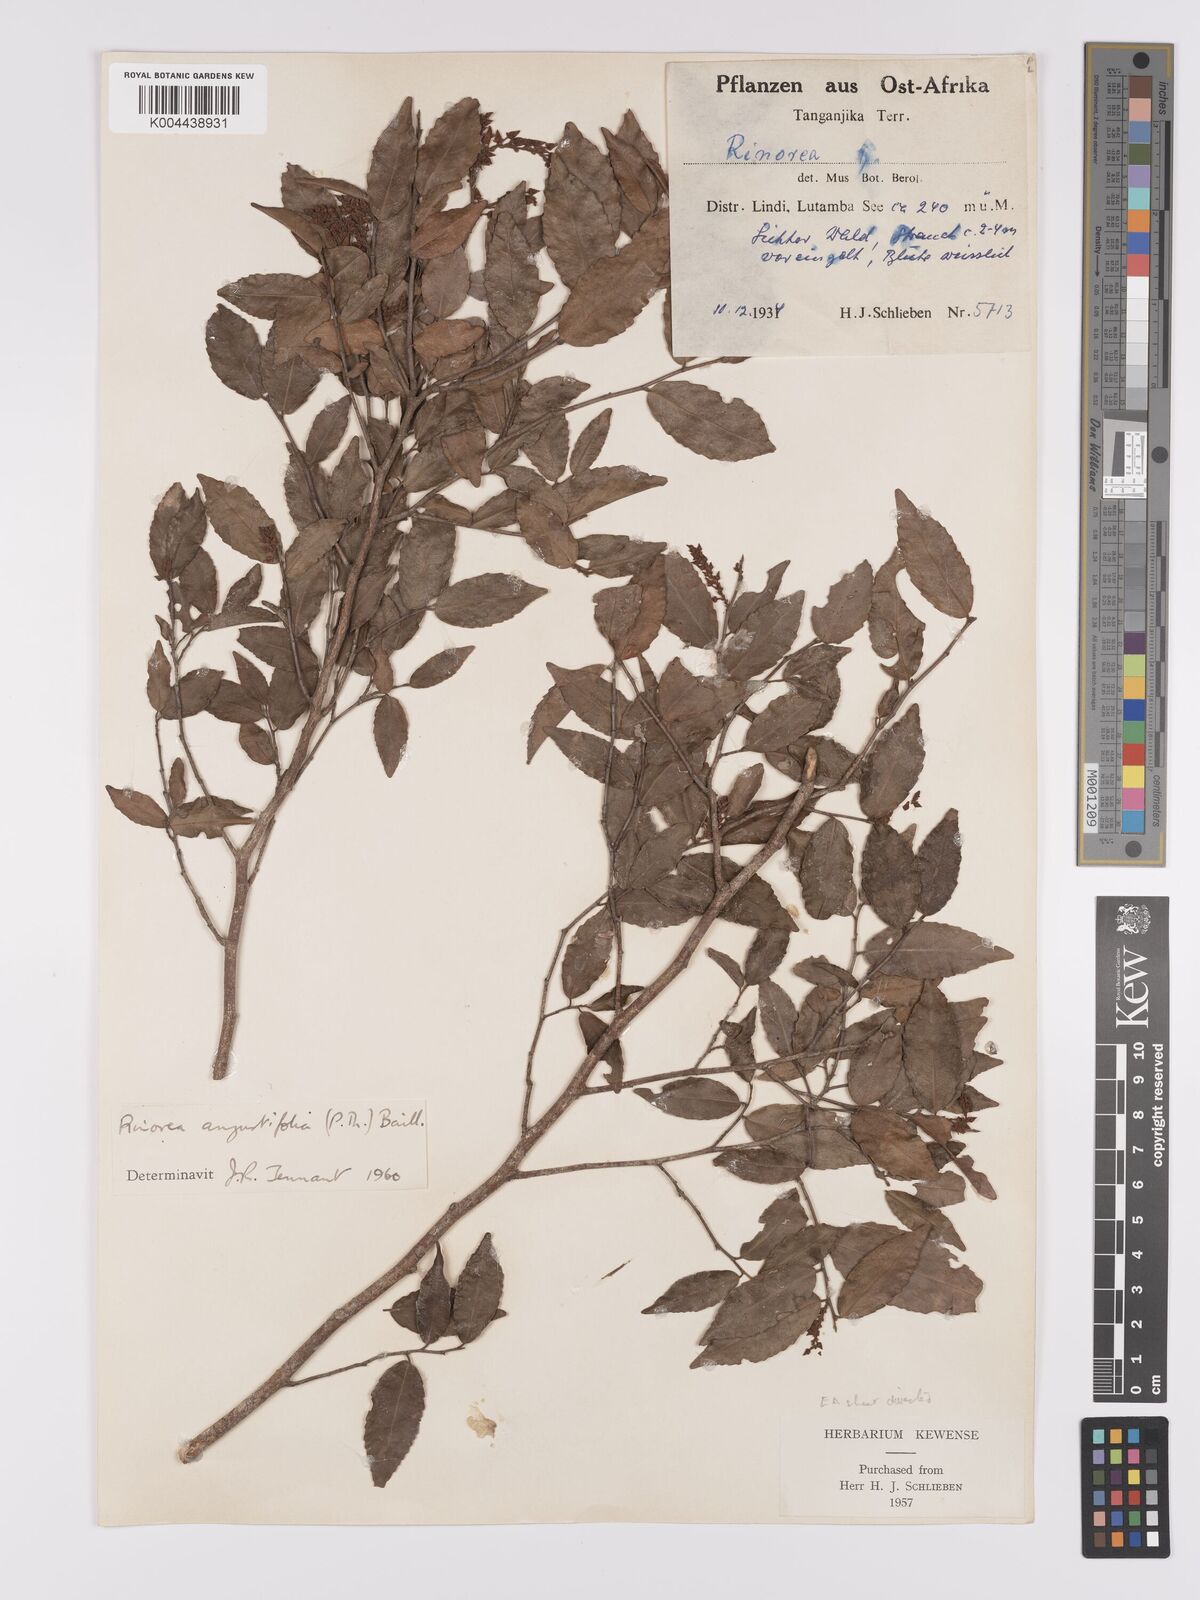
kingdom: Plantae
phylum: Tracheophyta
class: Magnoliopsida
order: Malpighiales
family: Violaceae
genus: Rinorea
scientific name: Rinorea angustifolia
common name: White violet-bush
